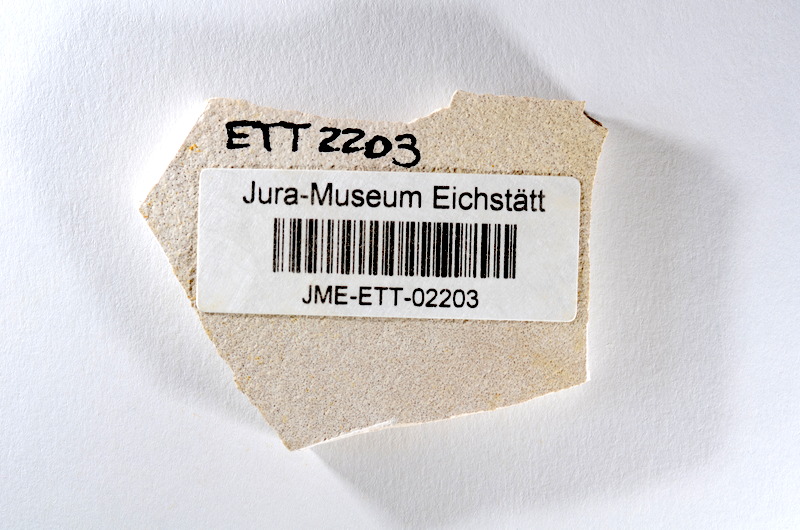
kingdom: Animalia
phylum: Chordata
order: Salmoniformes
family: Orthogonikleithridae
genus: Orthogonikleithrus
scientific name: Orthogonikleithrus hoelli
